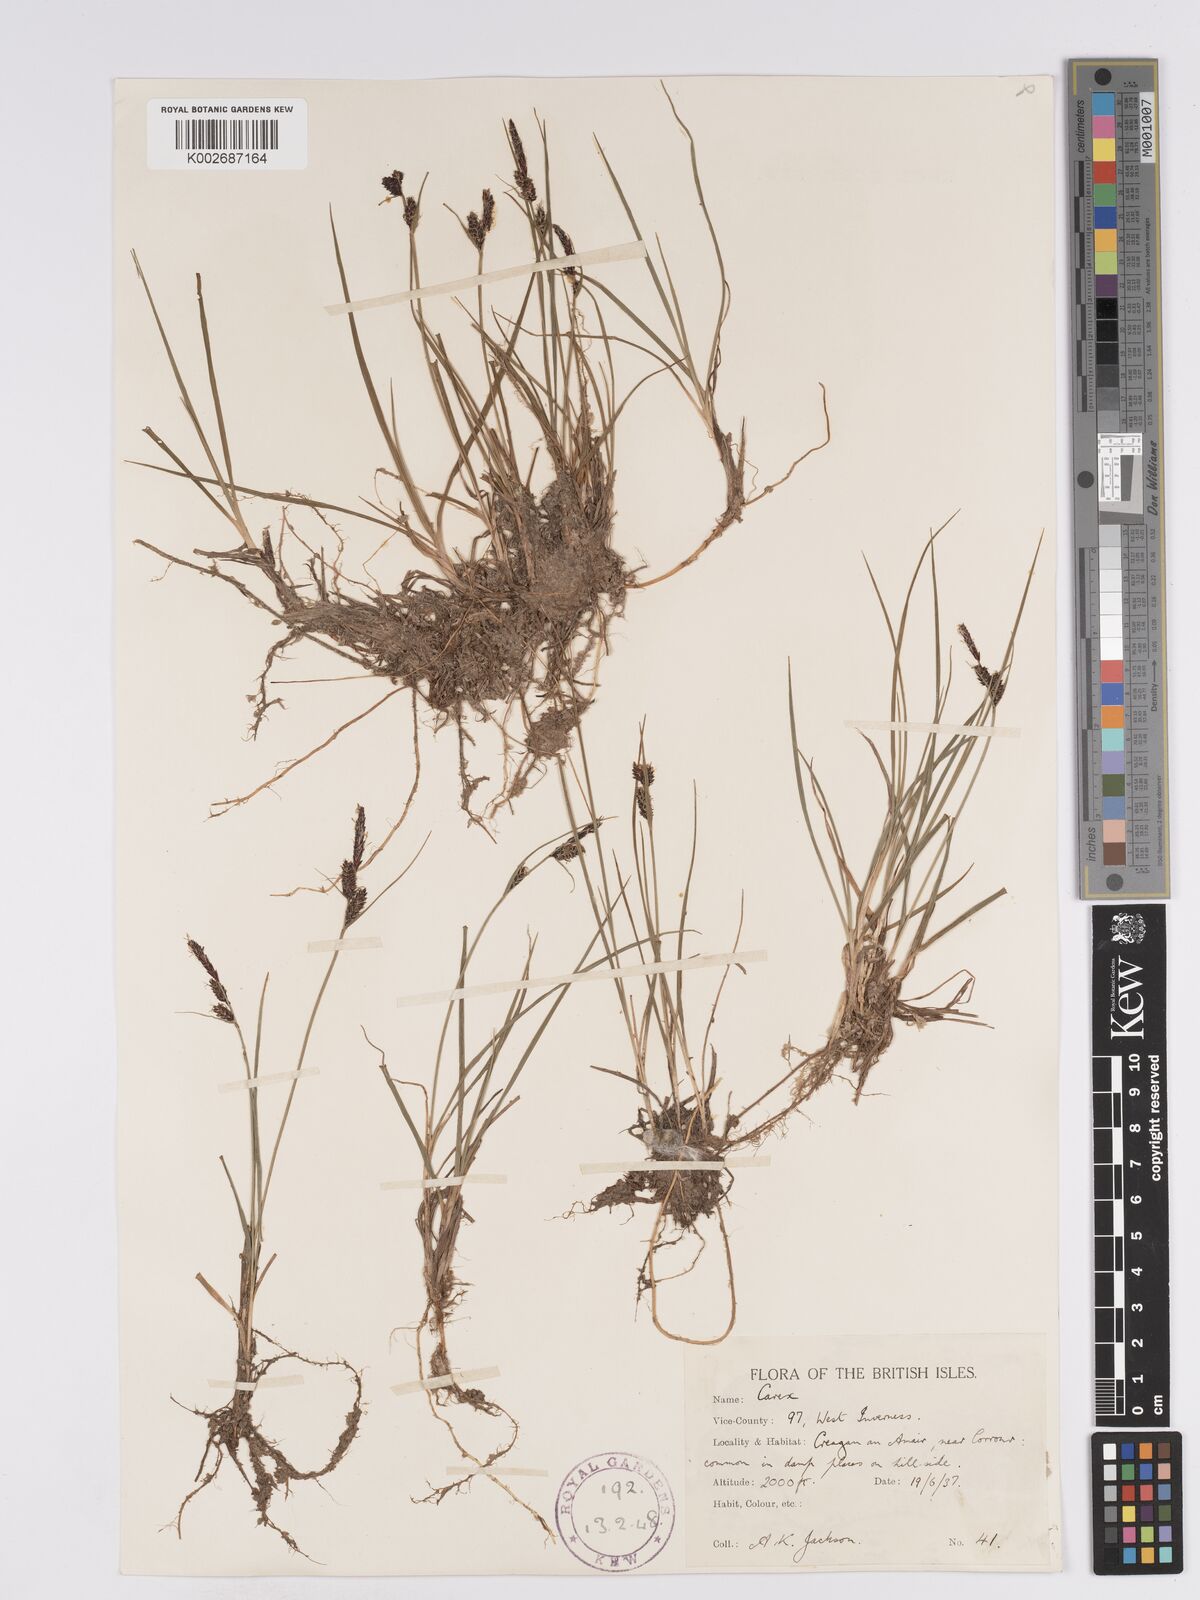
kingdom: Plantae
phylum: Tracheophyta
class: Liliopsida
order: Poales
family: Cyperaceae
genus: Carex
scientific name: Carex nigra
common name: Common sedge
